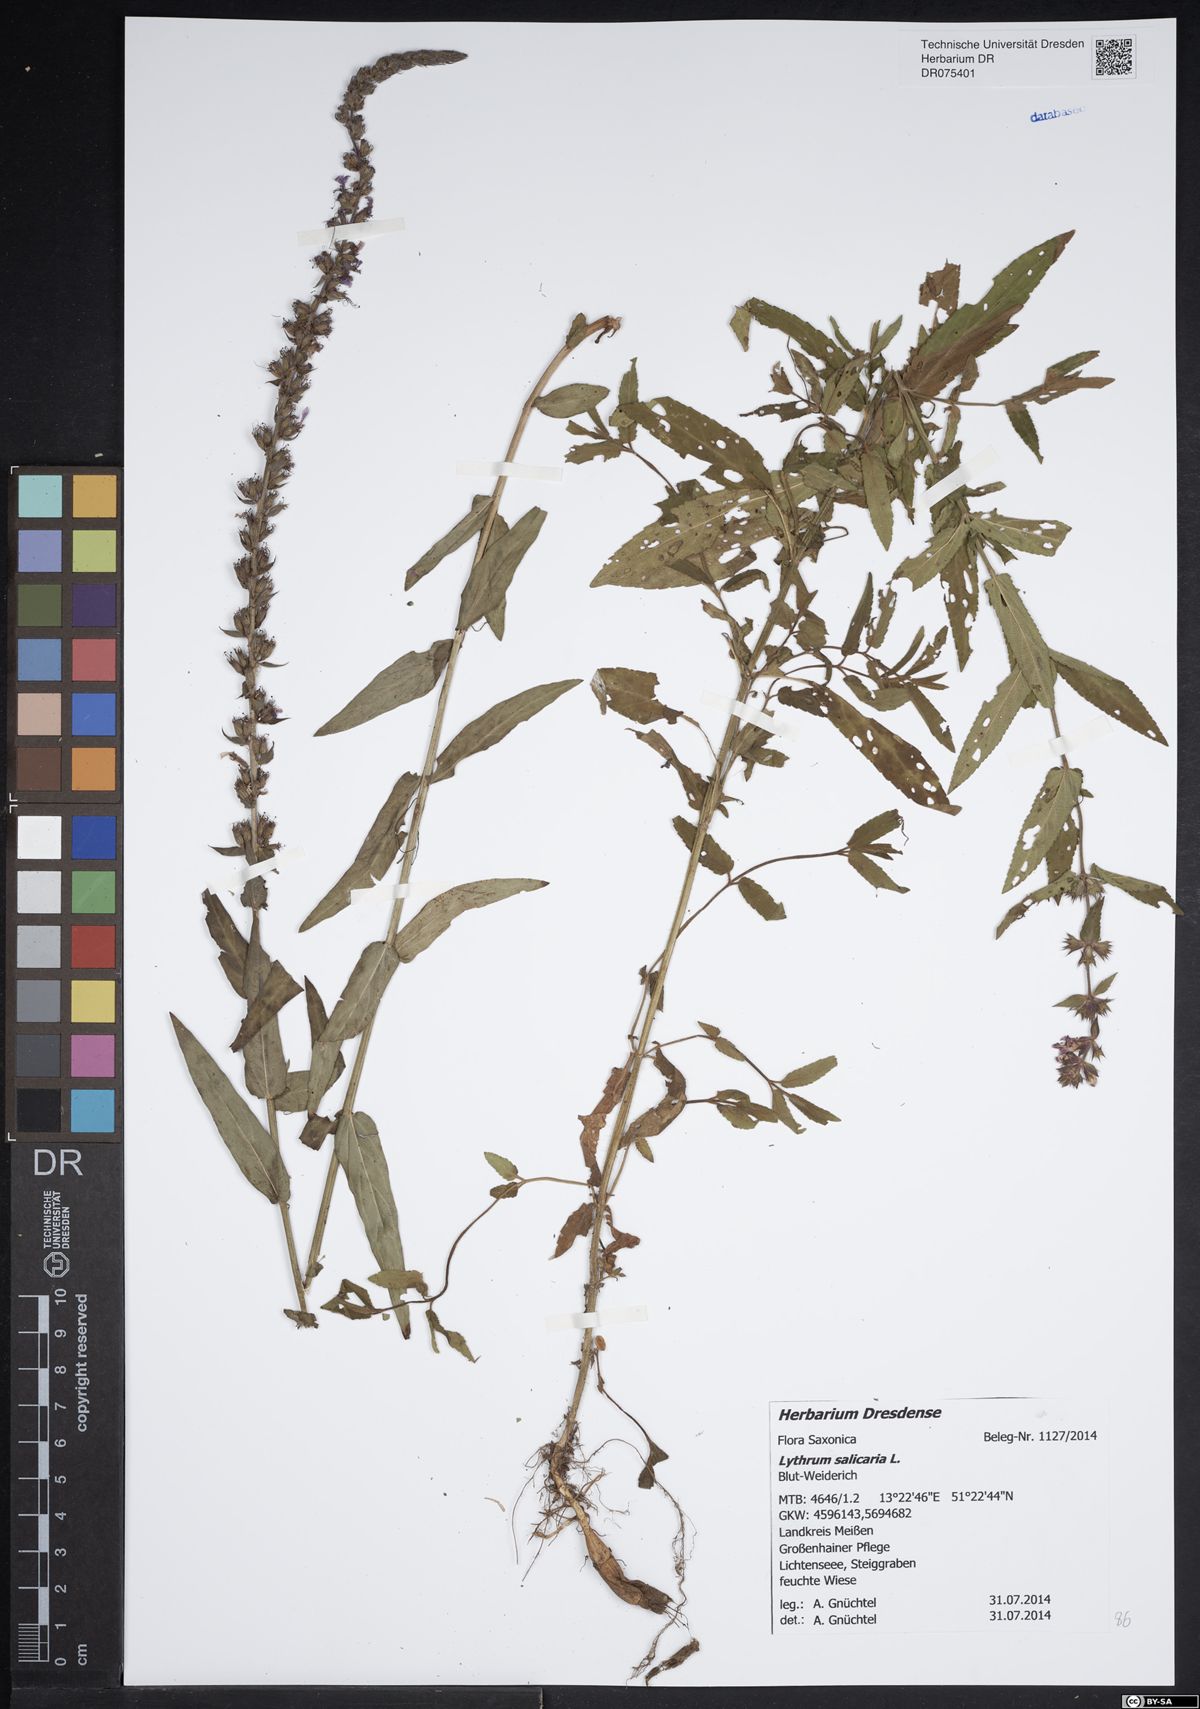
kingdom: Plantae
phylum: Tracheophyta
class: Magnoliopsida
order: Myrtales
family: Lythraceae
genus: Lythrum
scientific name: Lythrum salicaria
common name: Purple loosestrife
